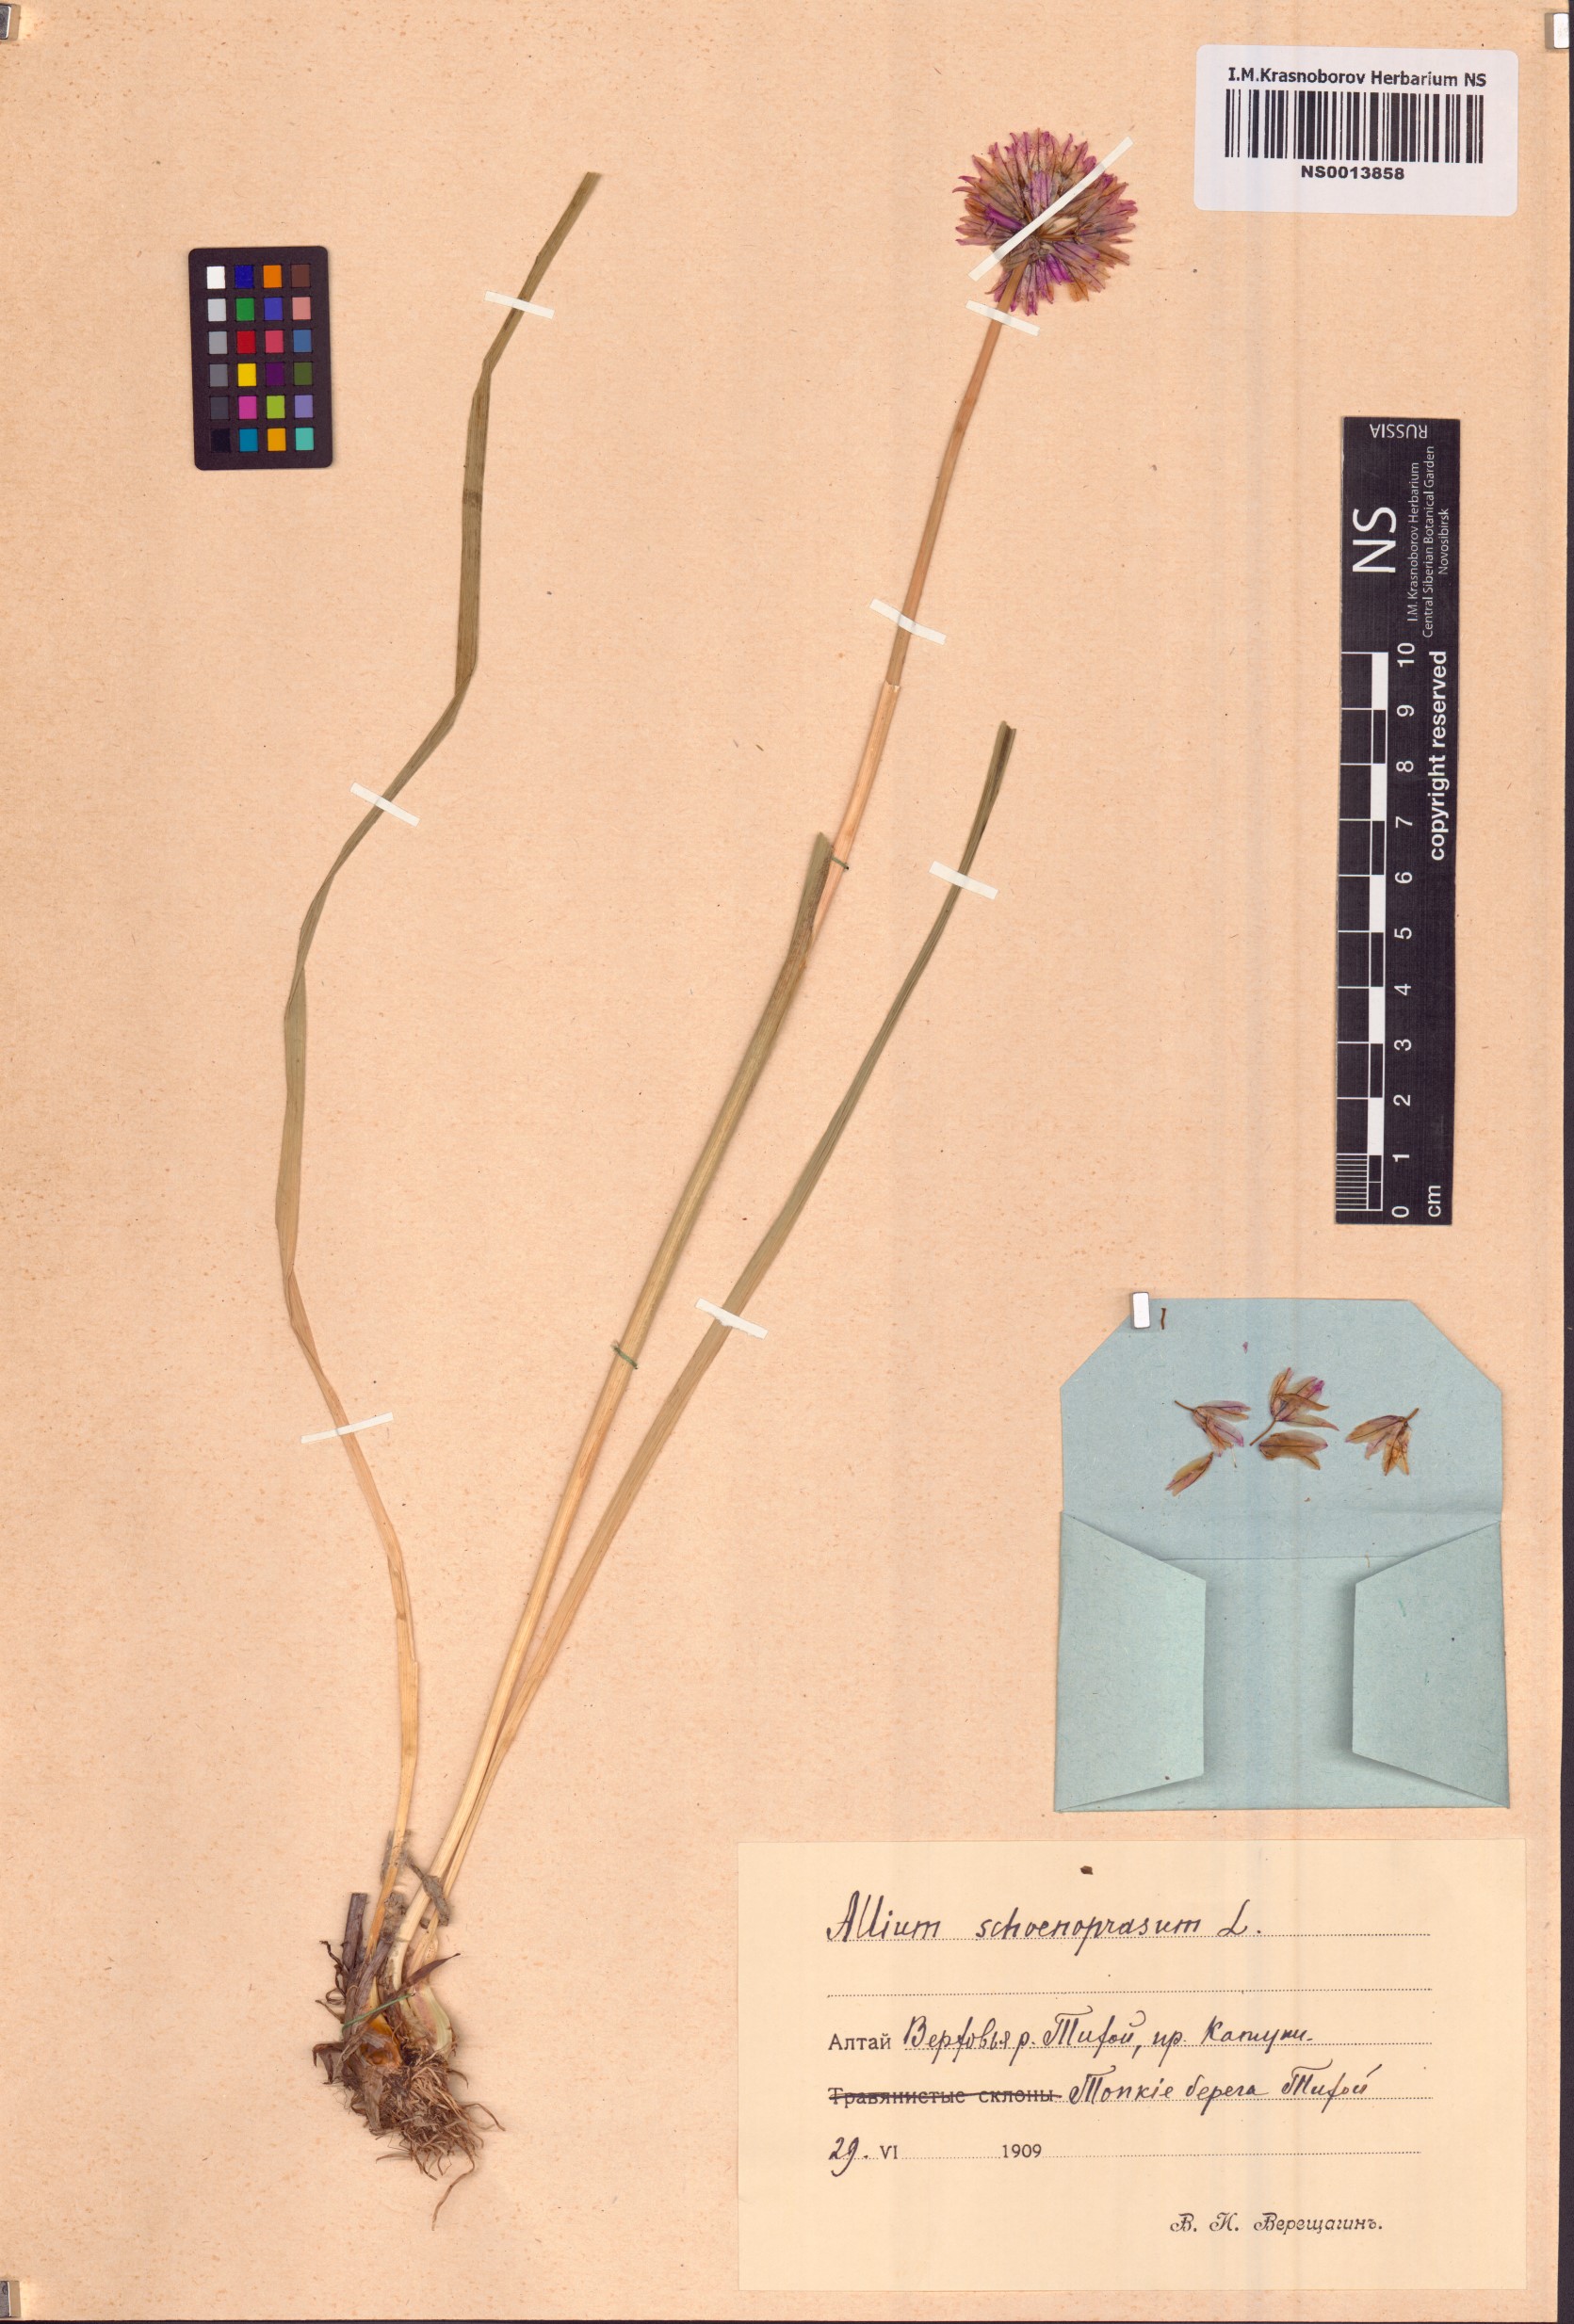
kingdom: Plantae
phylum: Tracheophyta
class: Liliopsida
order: Asparagales
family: Amaryllidaceae
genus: Allium
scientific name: Allium schoenoprasum
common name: Chives
